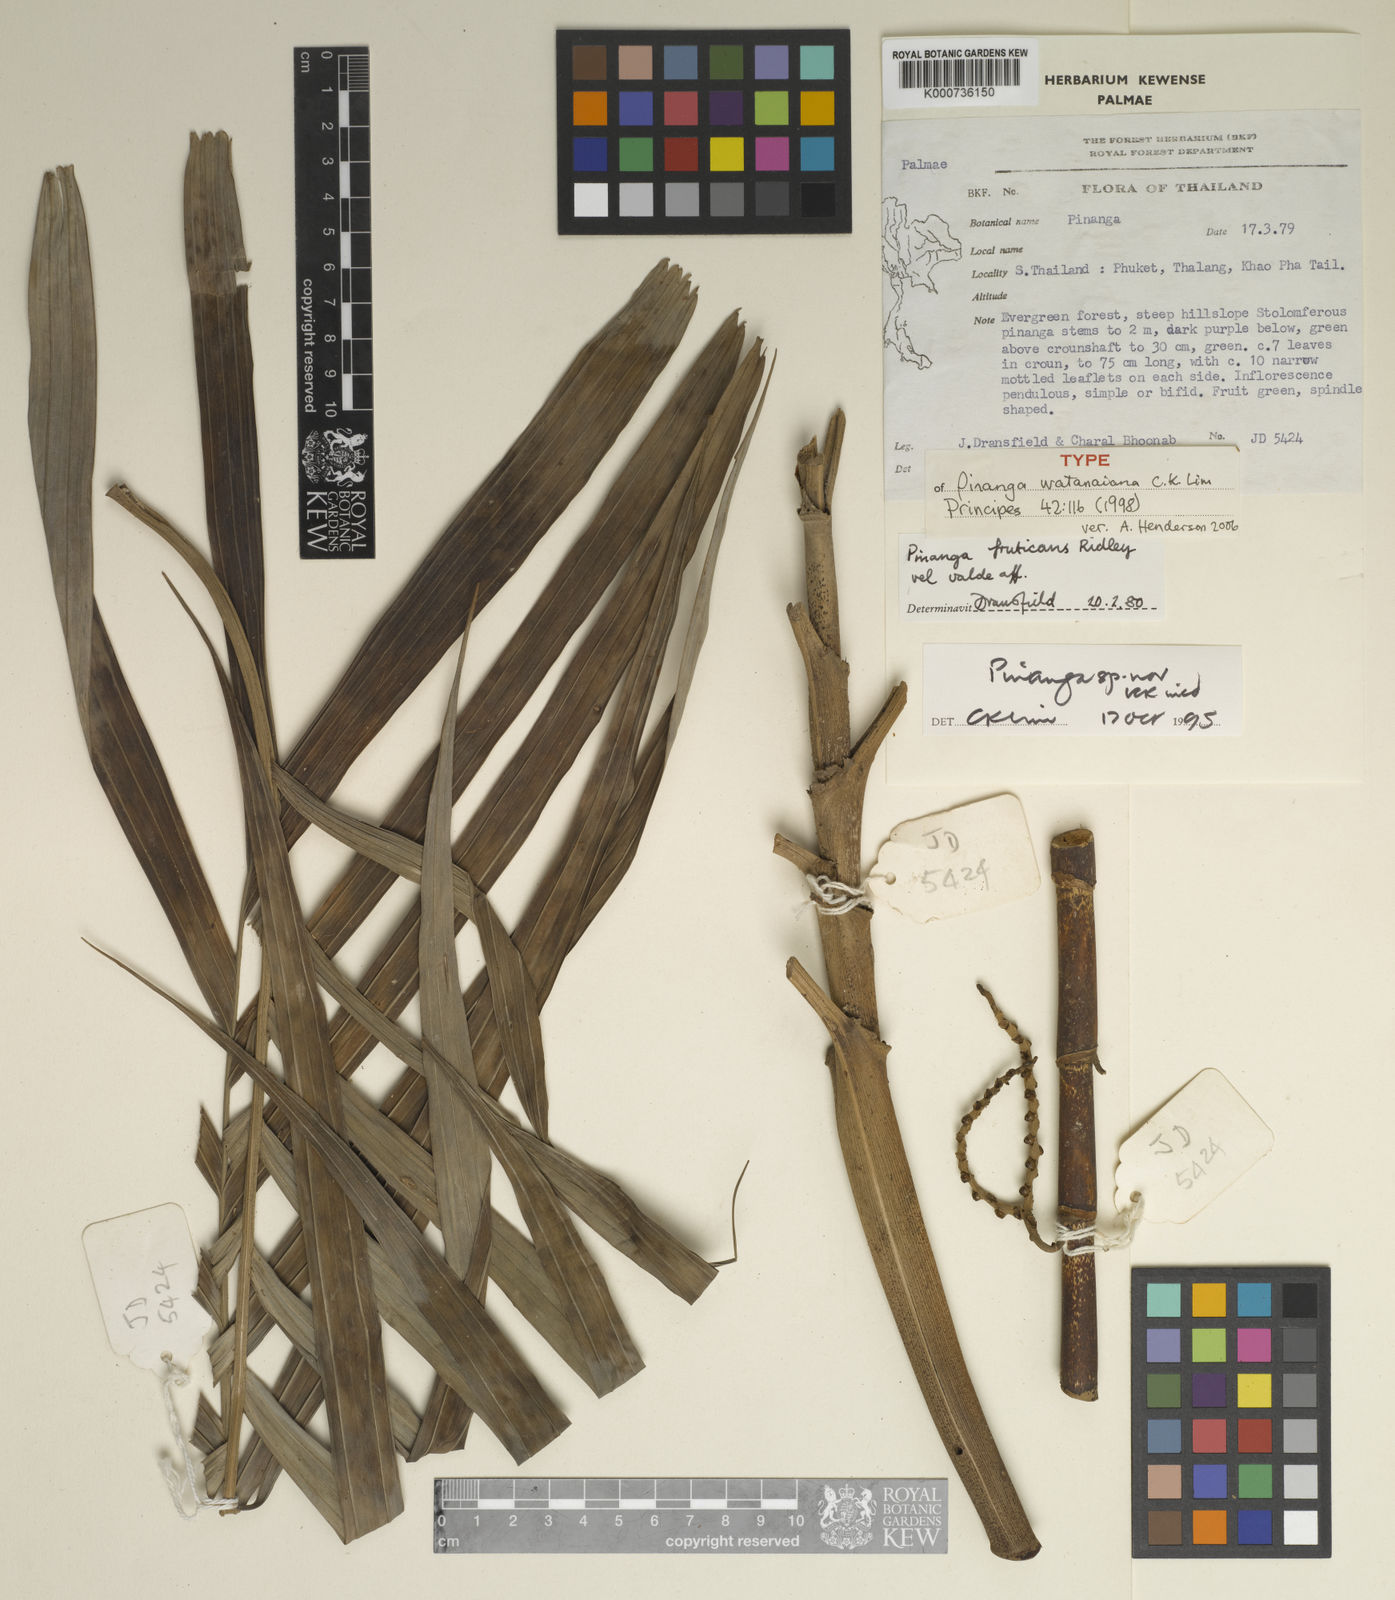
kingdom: Plantae
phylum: Tracheophyta
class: Liliopsida
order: Arecales
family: Arecaceae
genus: Pinanga
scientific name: Pinanga watanaiana
